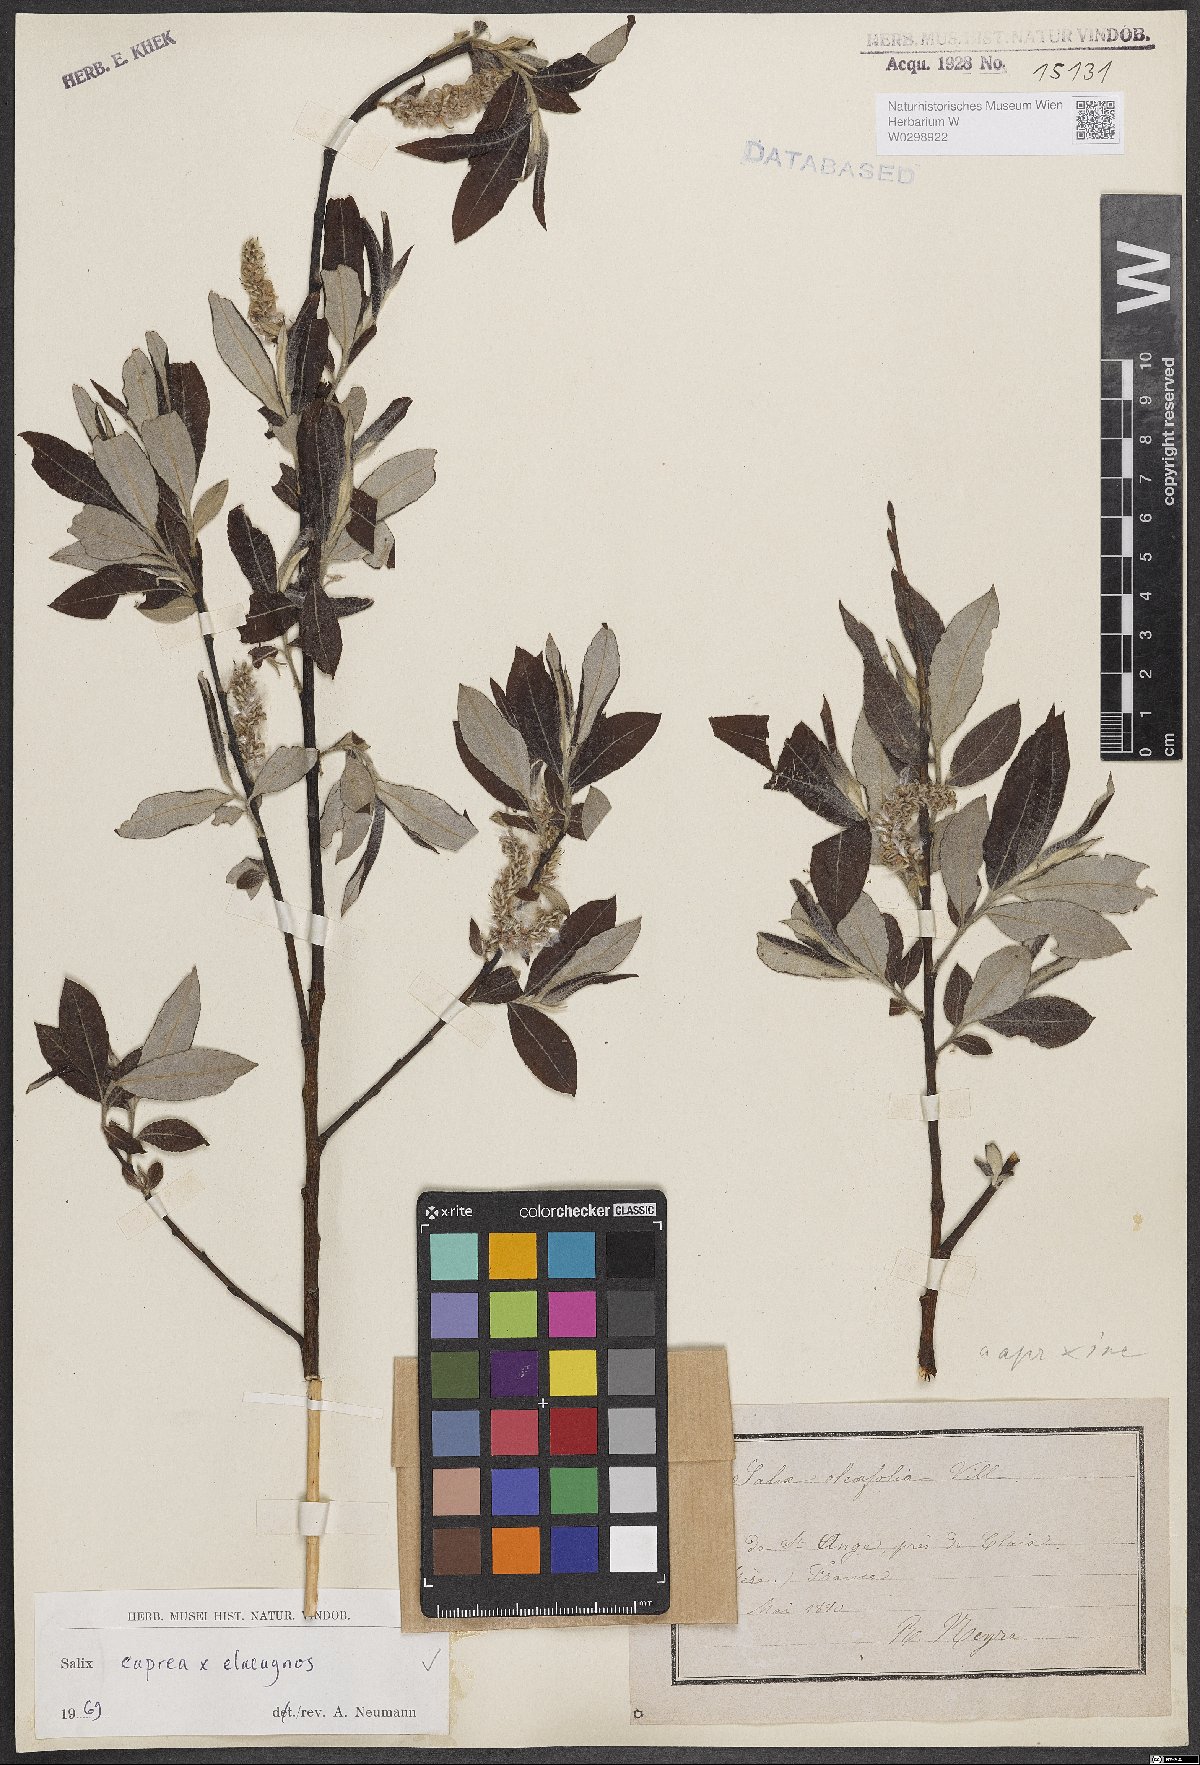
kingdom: Plantae
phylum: Tracheophyta
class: Magnoliopsida
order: Malpighiales
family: Salicaceae
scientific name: Salicaceae
